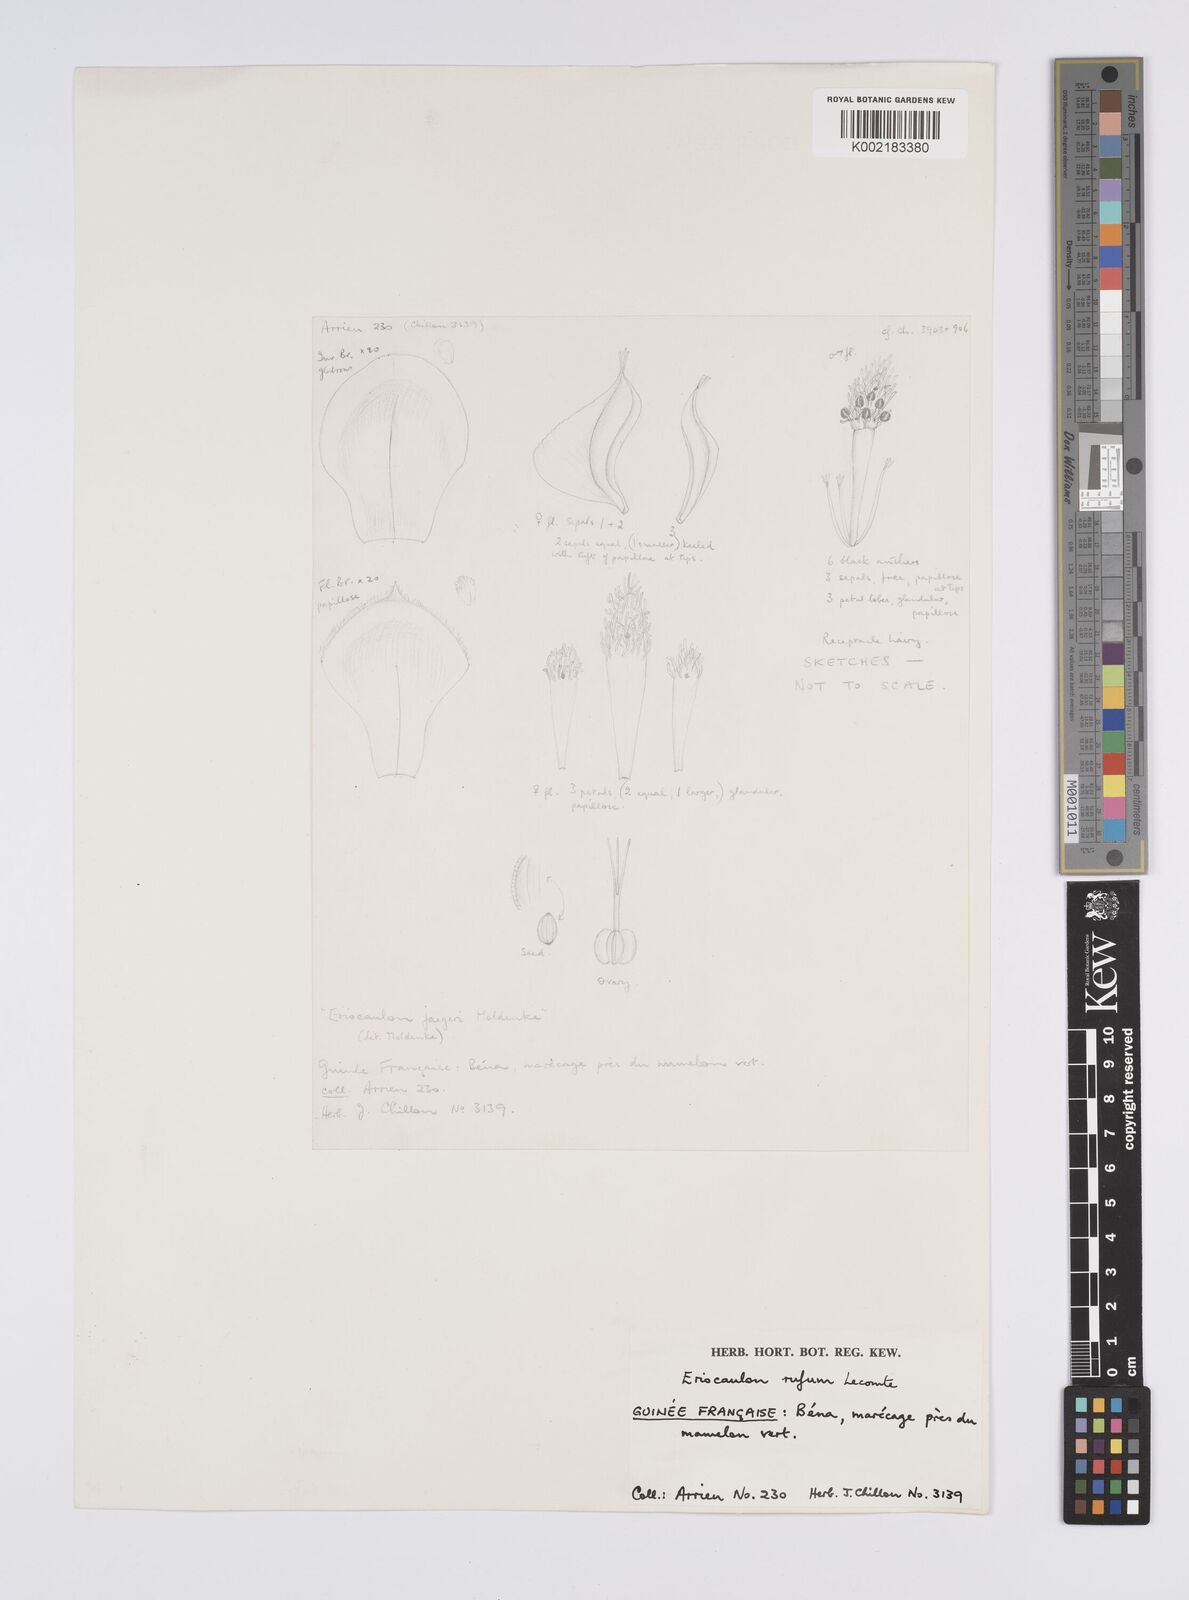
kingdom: Plantae
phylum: Tracheophyta
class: Liliopsida
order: Poales
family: Eriocaulaceae
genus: Eriocaulon
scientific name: Eriocaulon rufum
